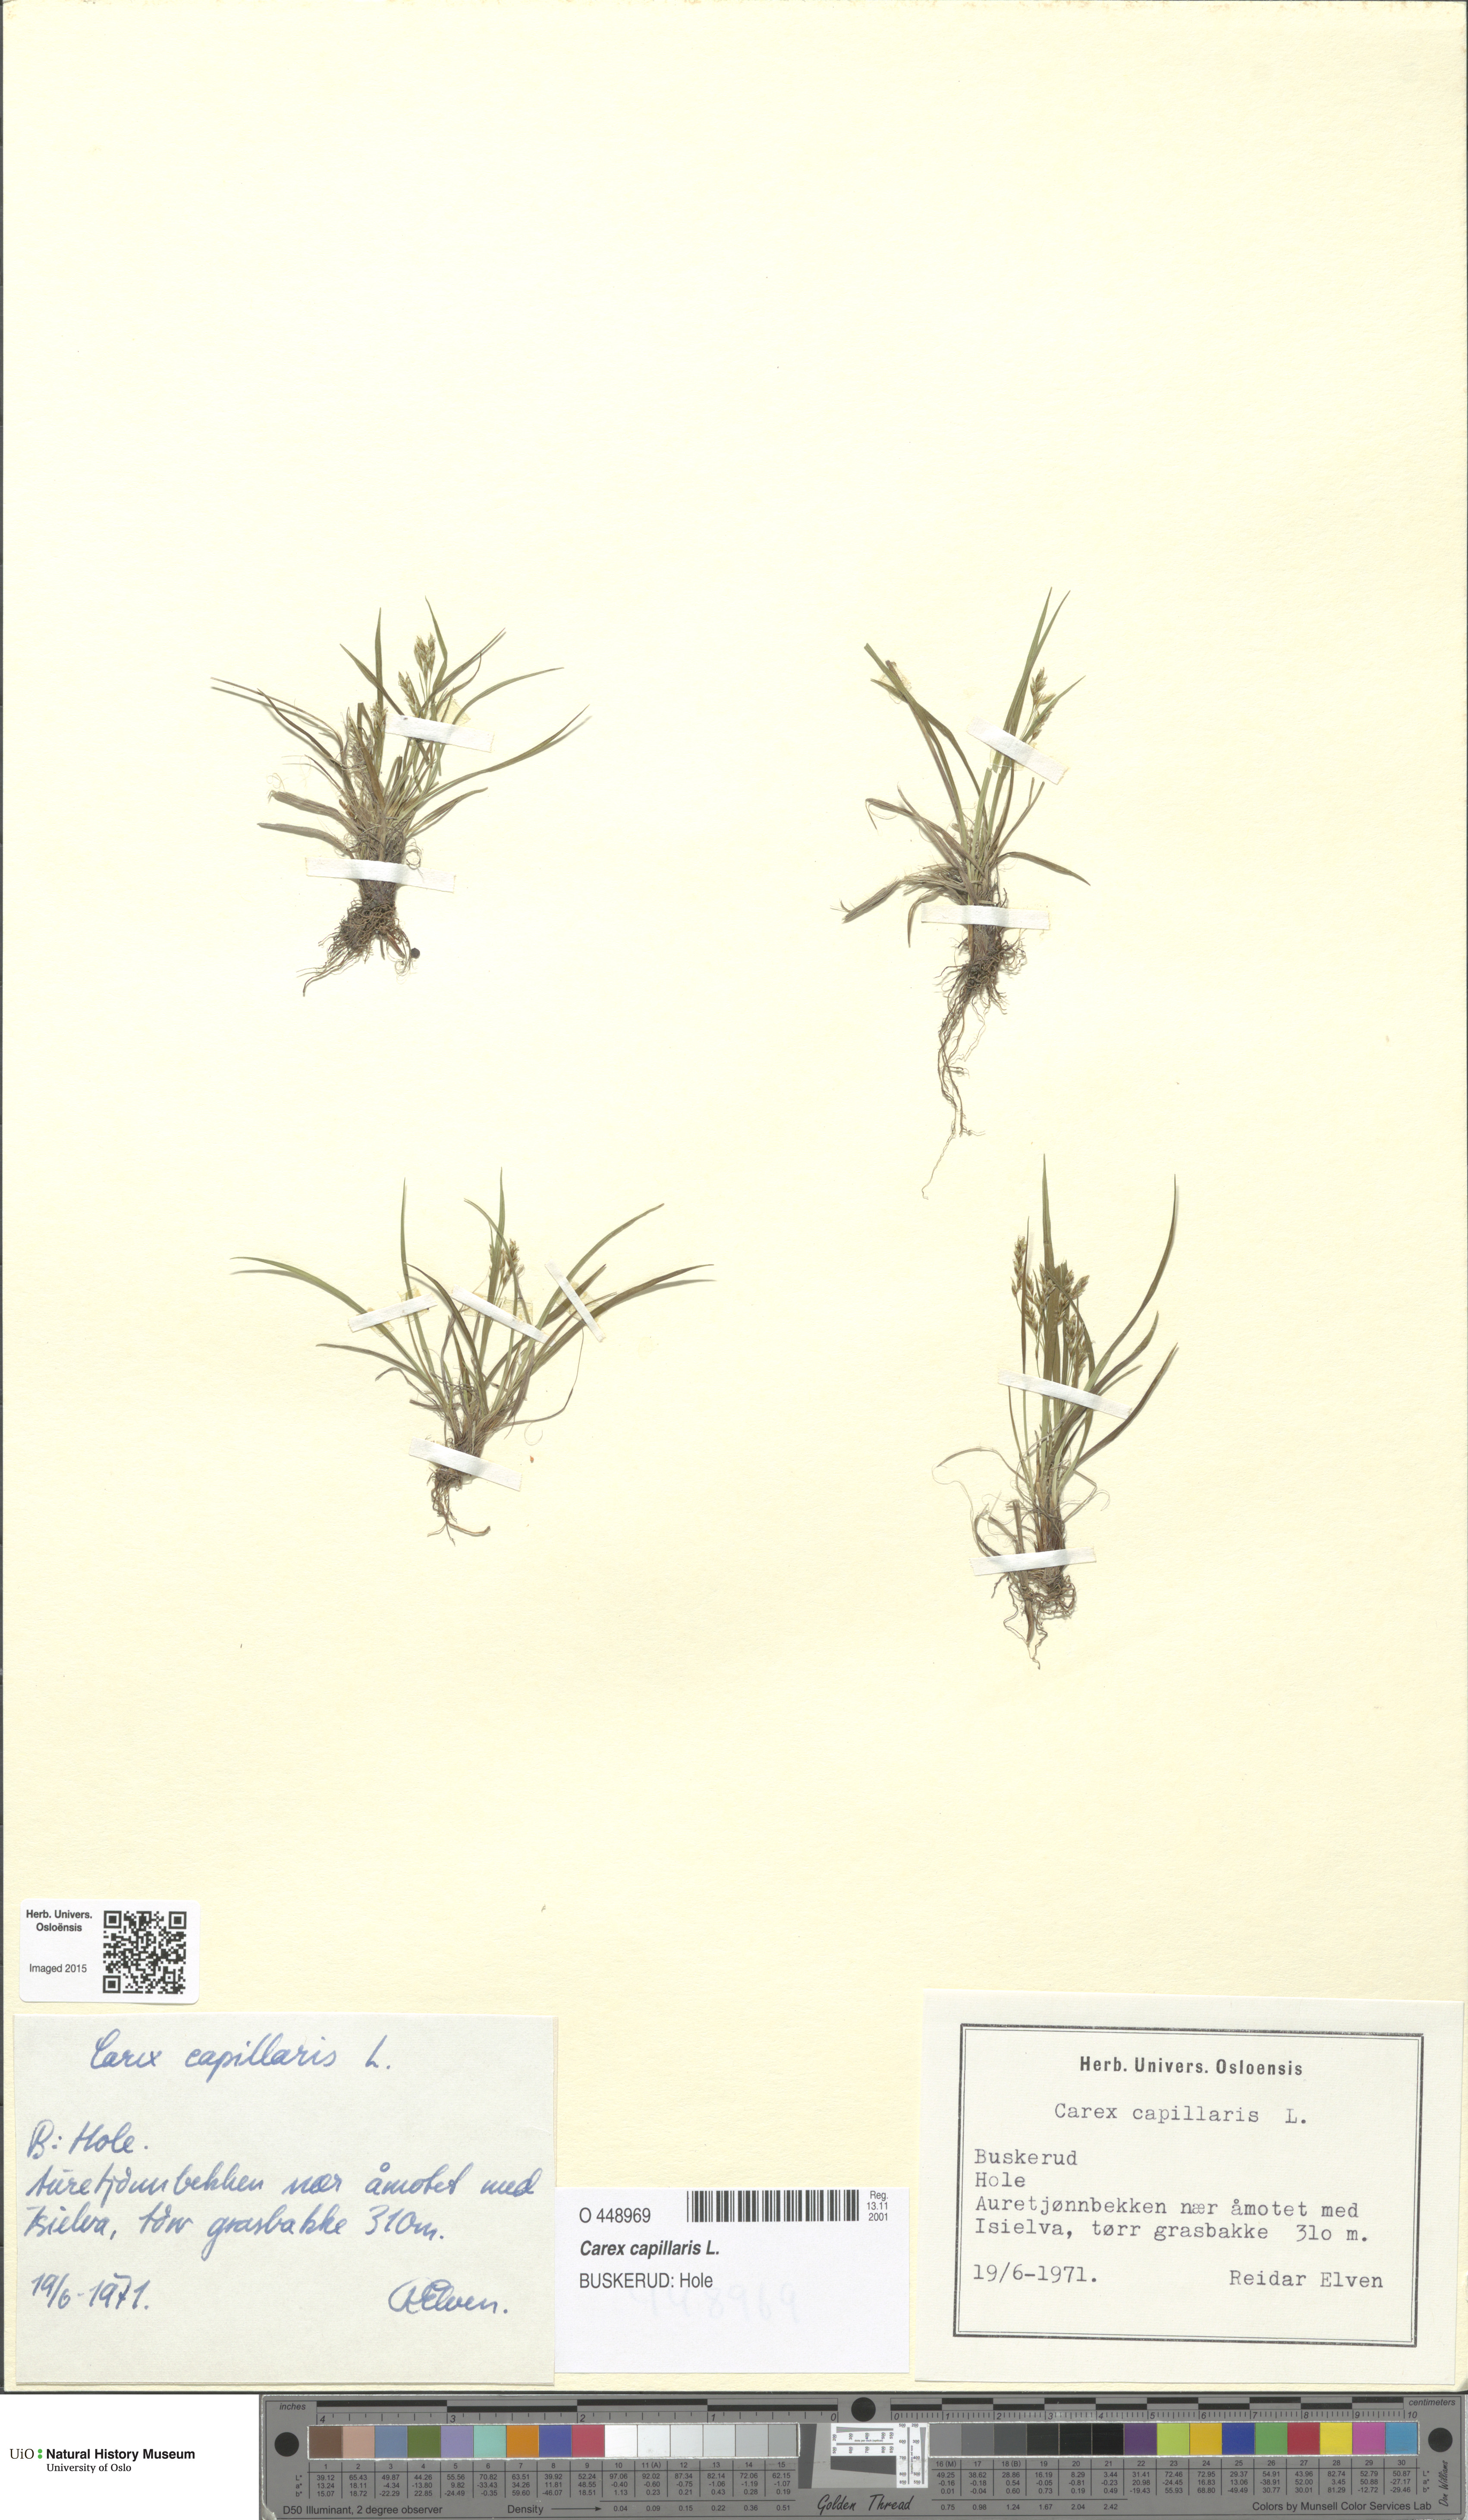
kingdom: Plantae
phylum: Tracheophyta
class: Liliopsida
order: Poales
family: Cyperaceae
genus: Carex
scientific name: Carex capillaris
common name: Hair sedge
